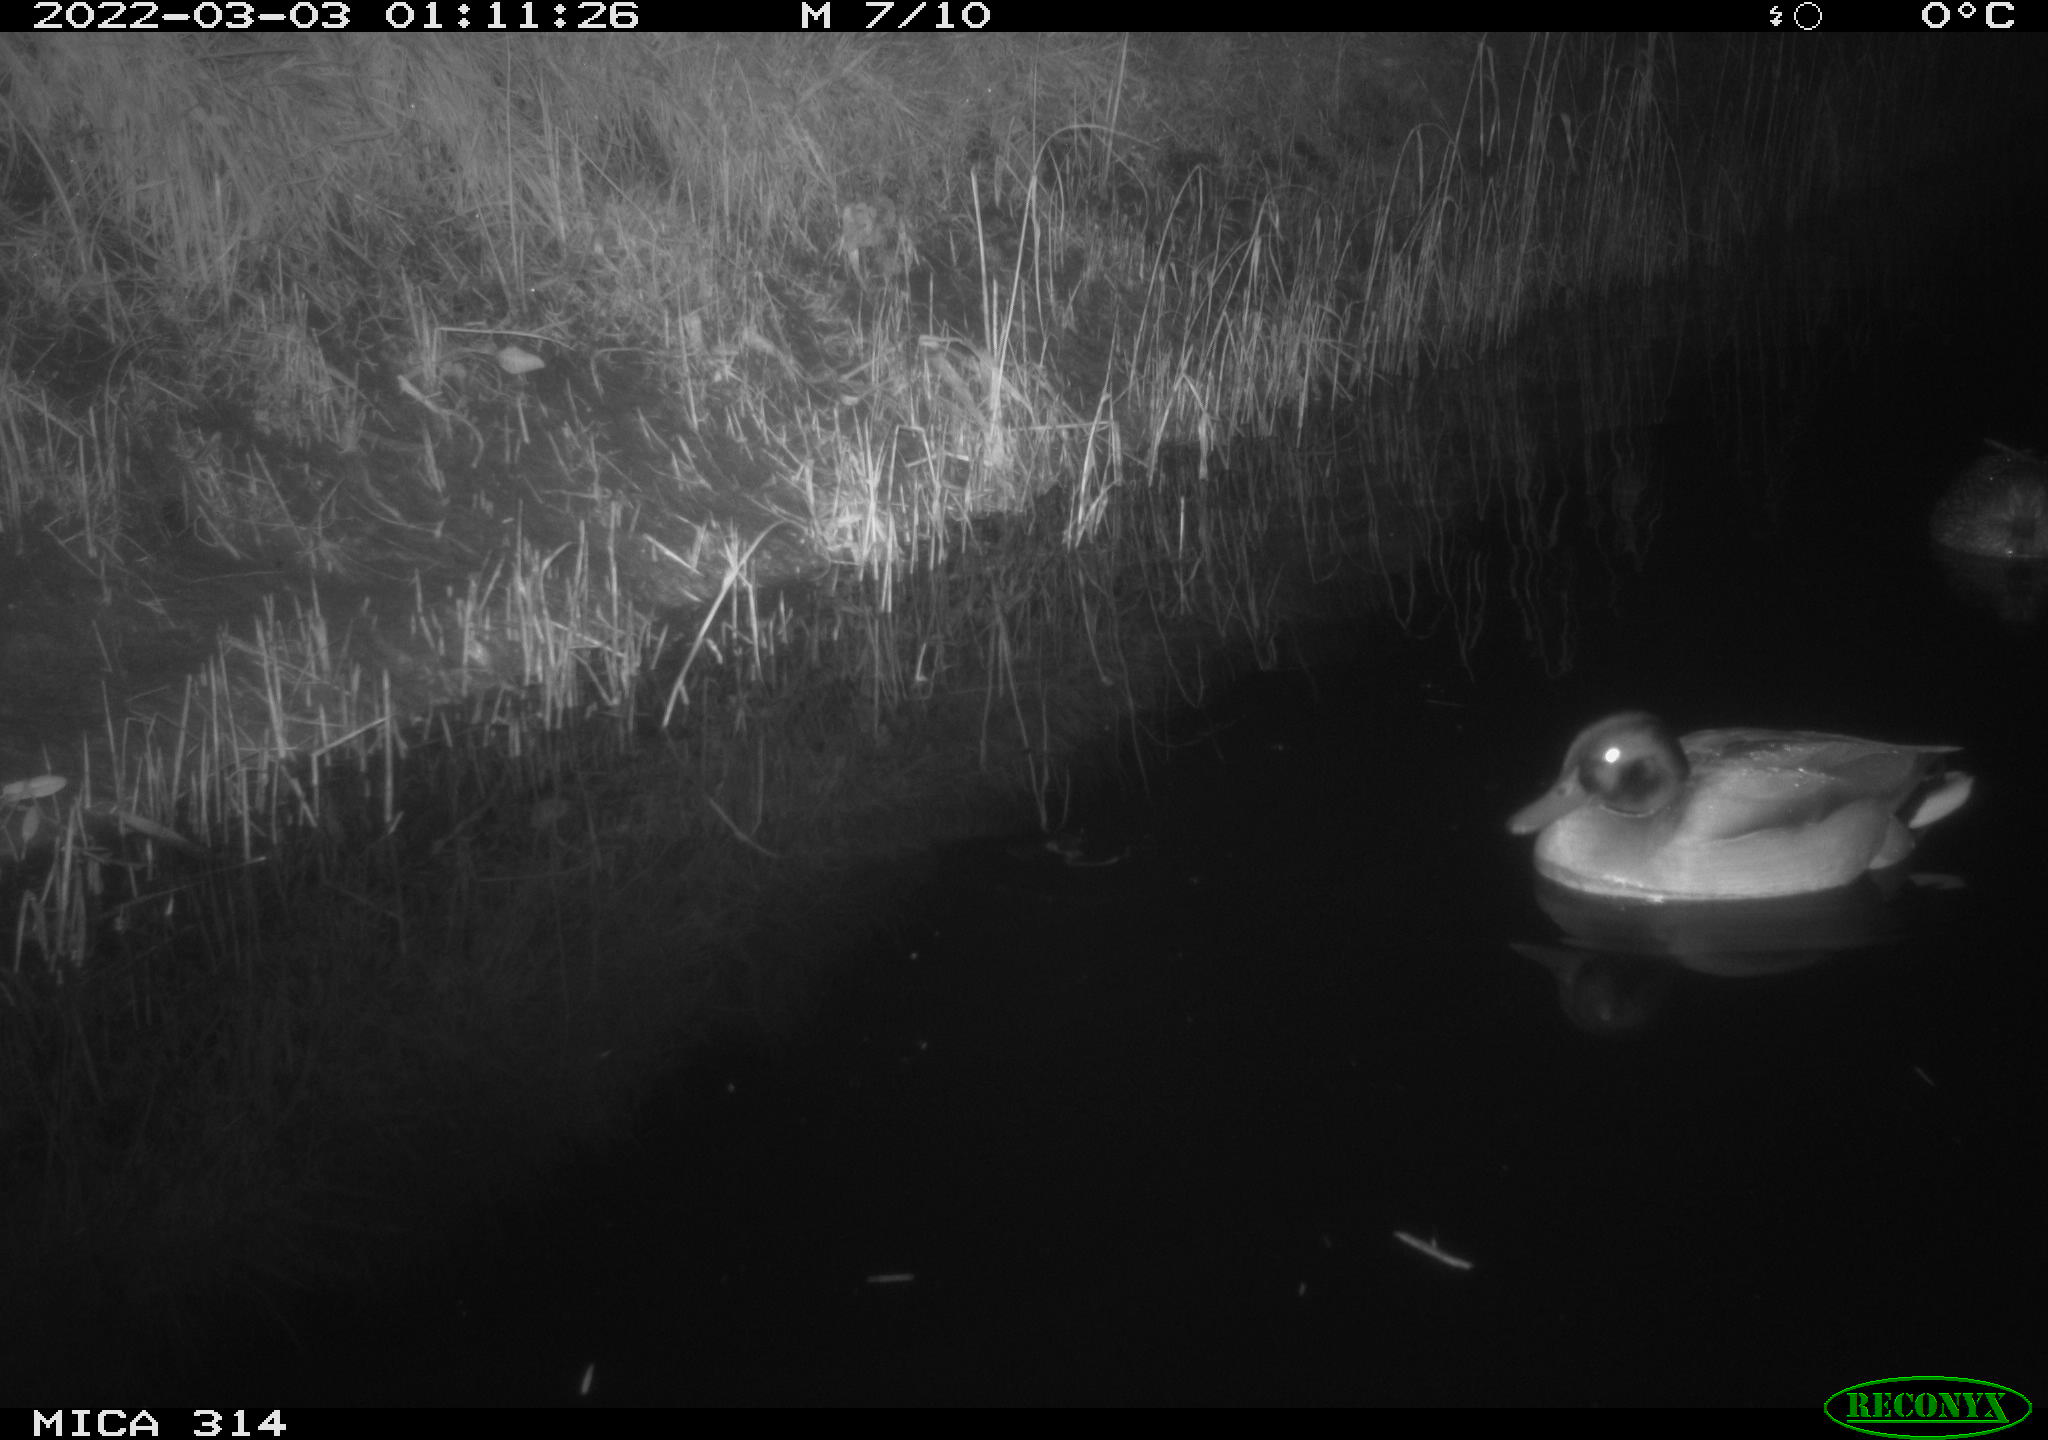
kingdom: Animalia
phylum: Chordata
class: Aves
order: Anseriformes
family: Anatidae
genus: Anas
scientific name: Anas platyrhynchos
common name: Mallard
